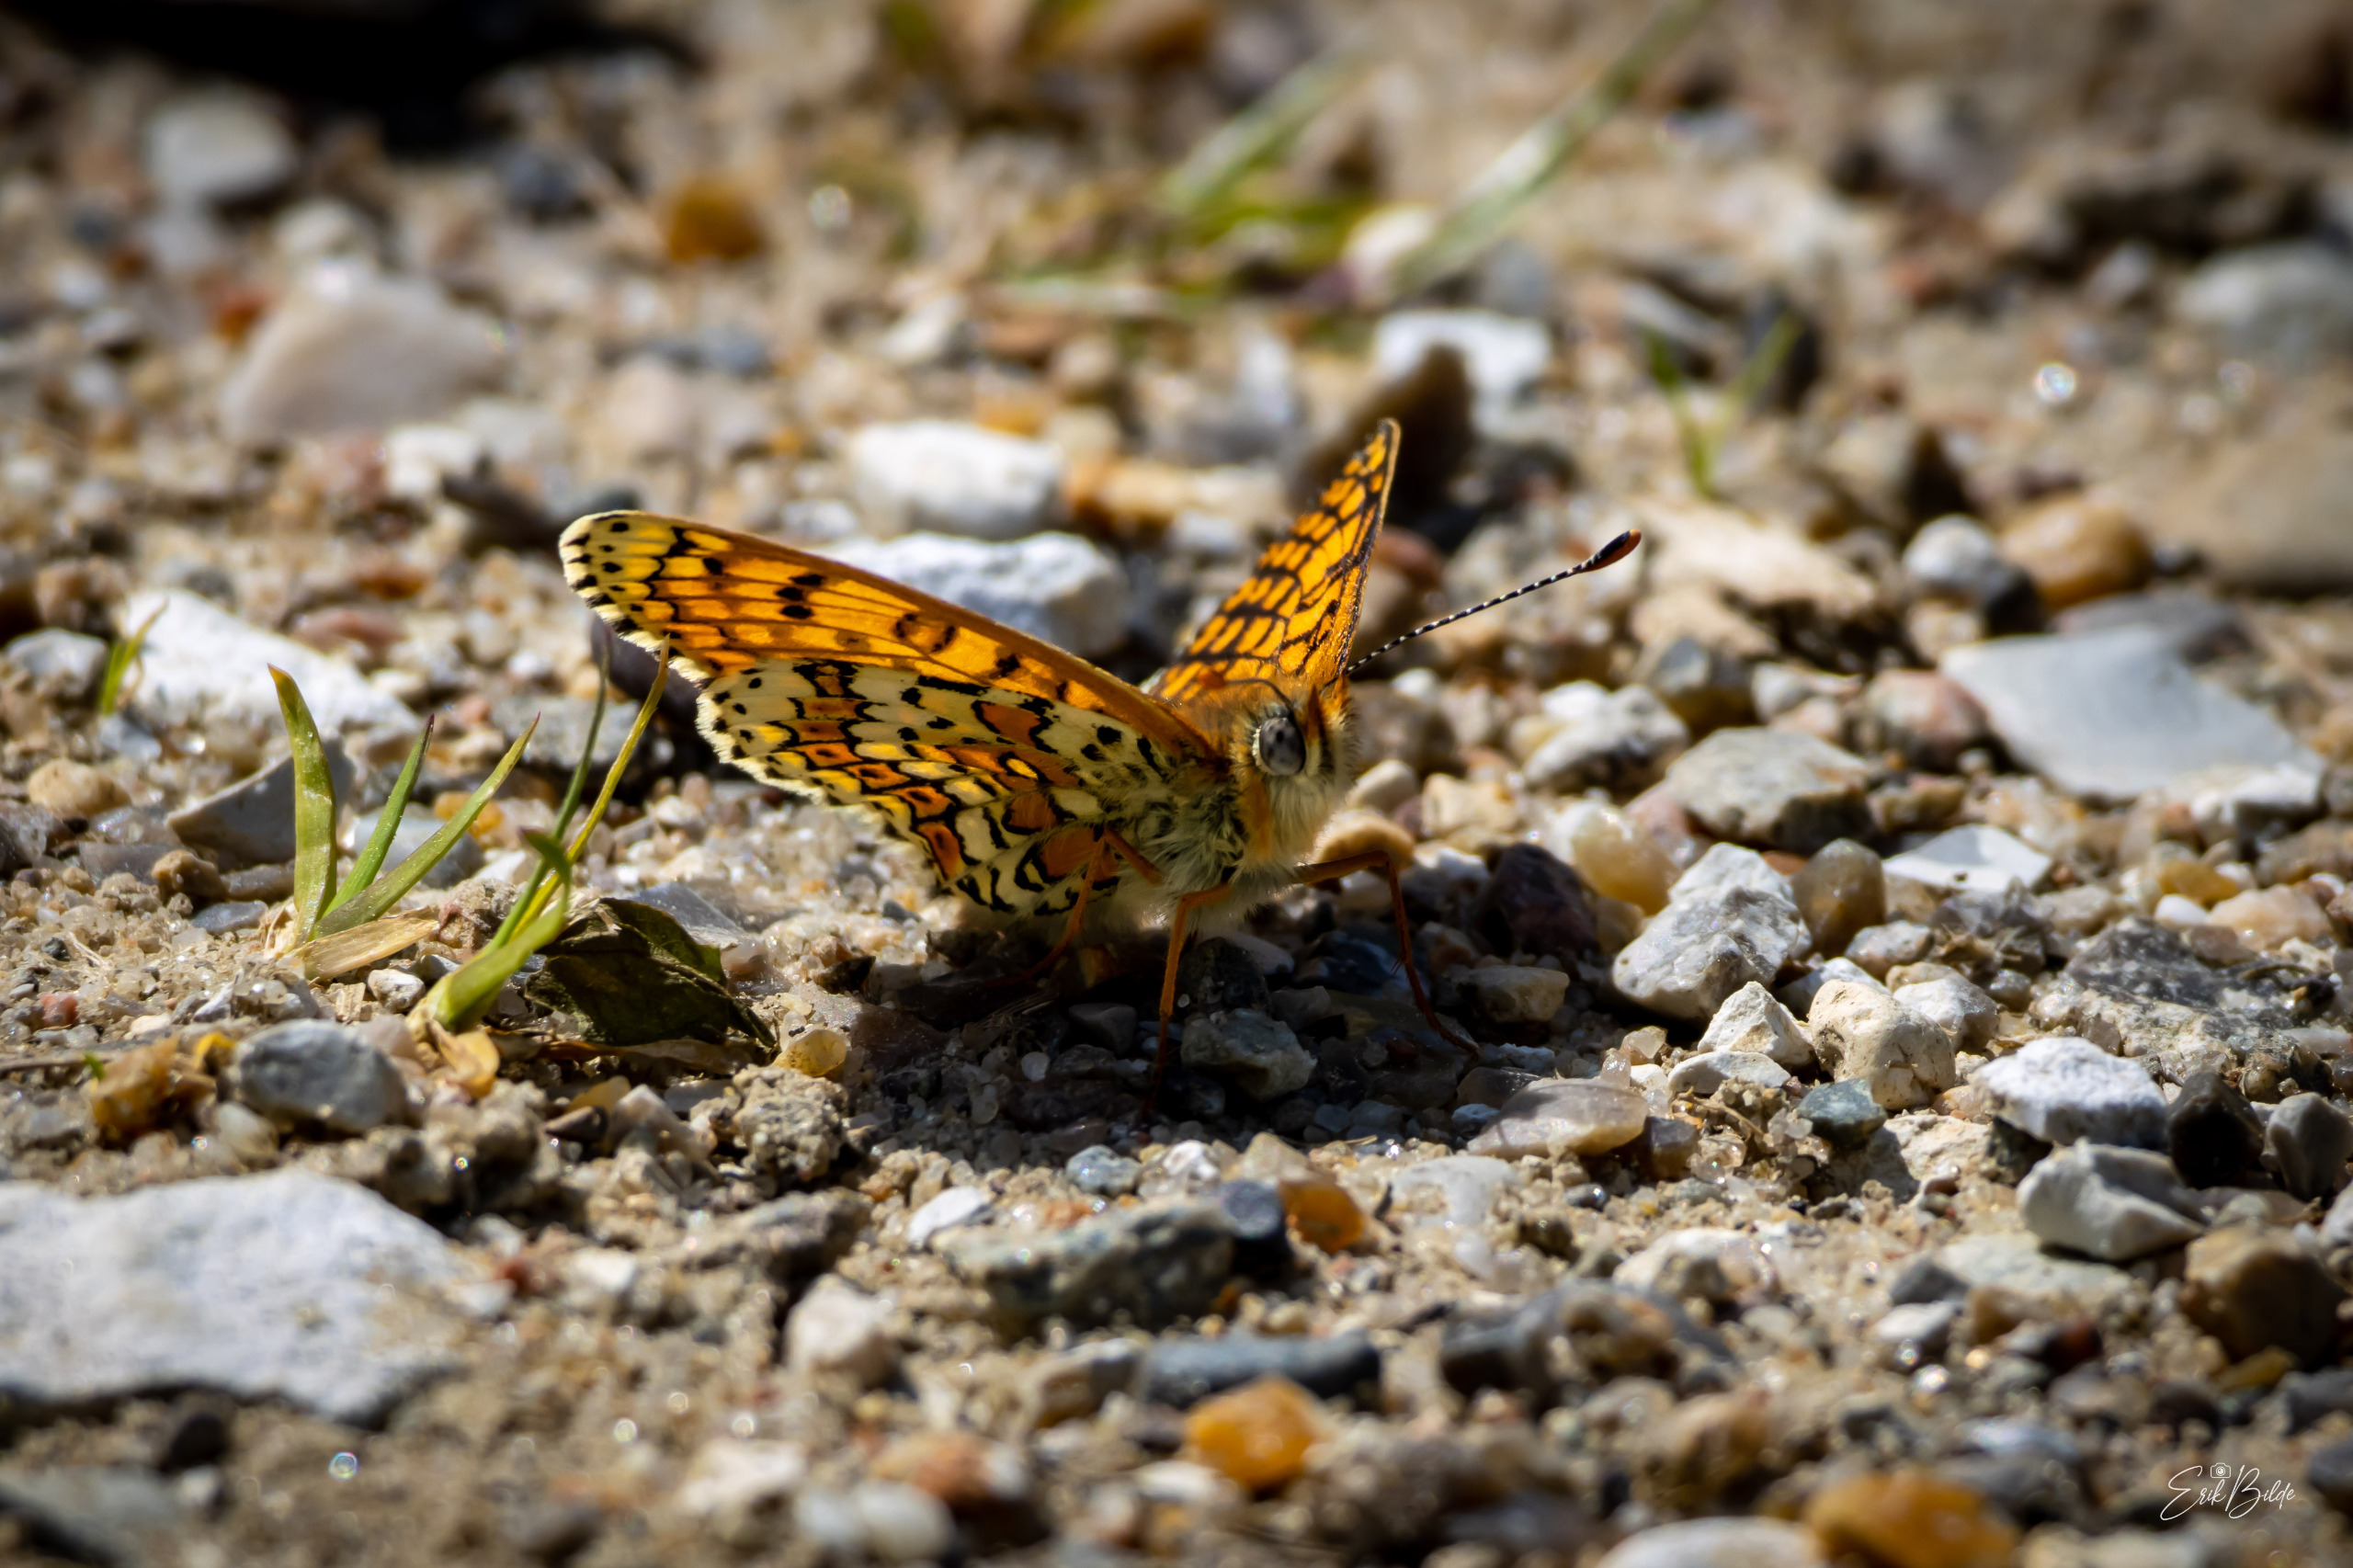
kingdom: Animalia
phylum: Arthropoda
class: Insecta
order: Lepidoptera
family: Nymphalidae
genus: Melitaea
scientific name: Melitaea cinxia
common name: Okkergul pletvinge
